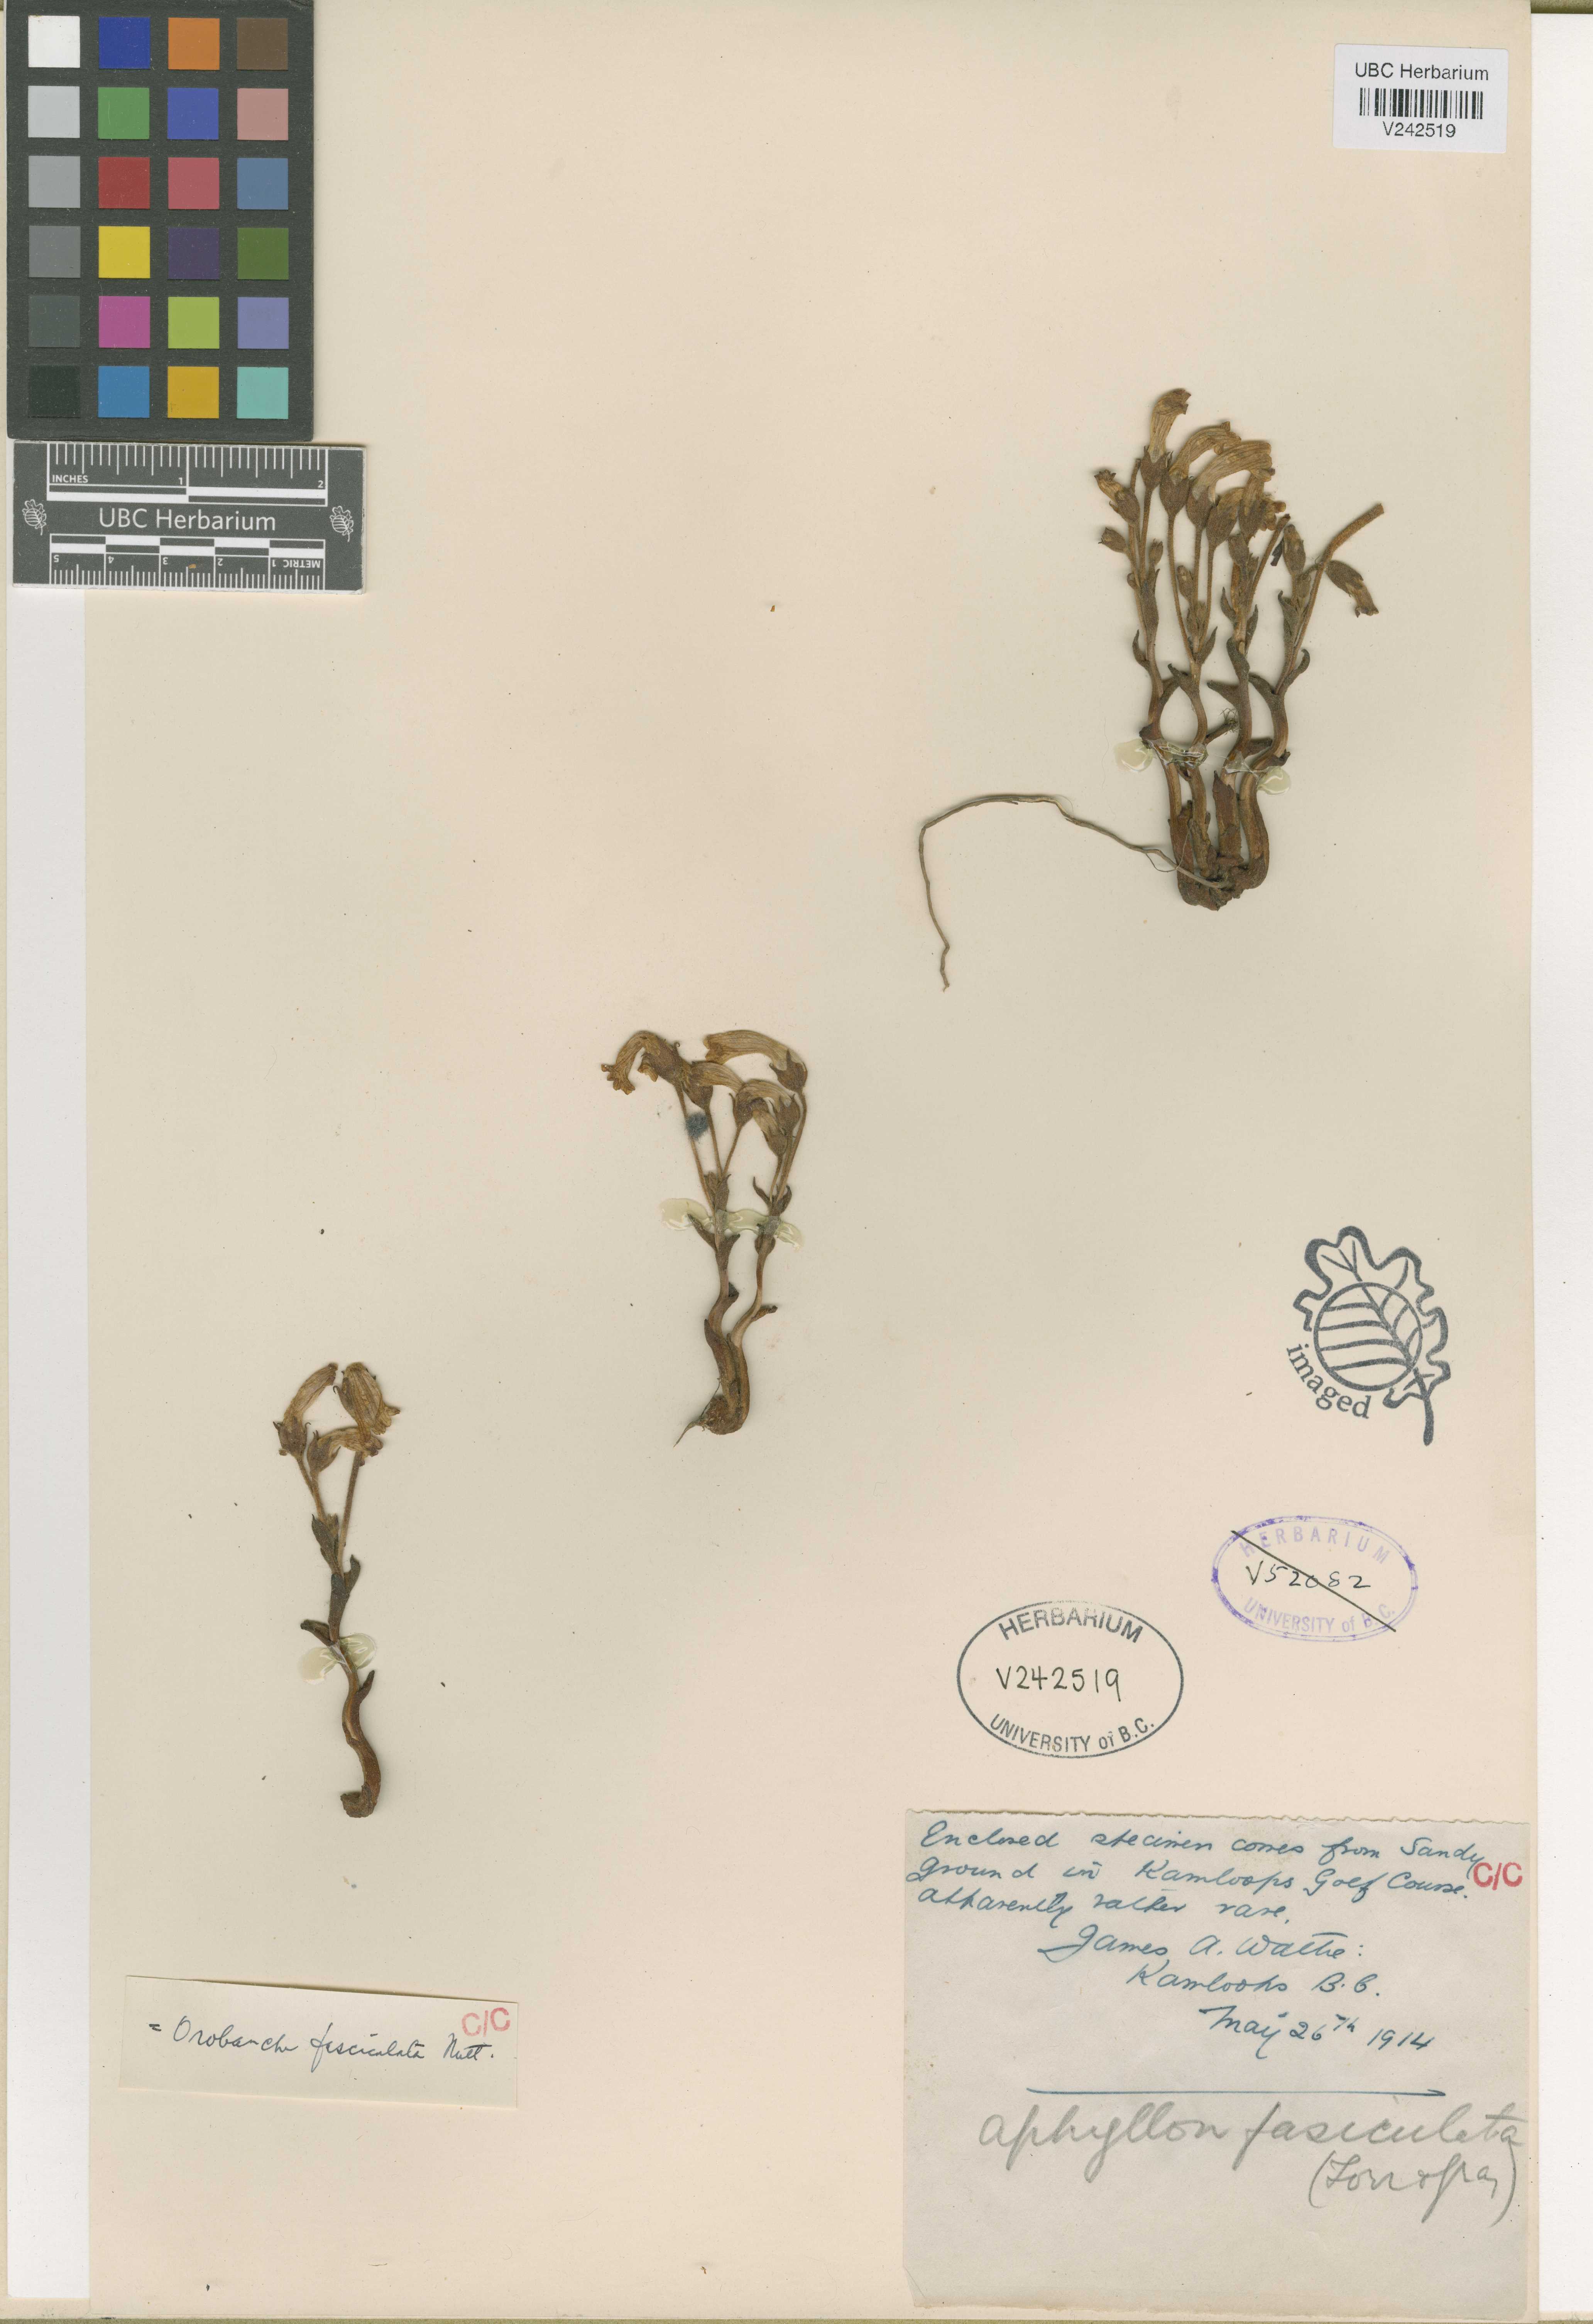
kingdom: Plantae
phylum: Tracheophyta
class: Magnoliopsida
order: Lamiales
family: Orobanchaceae
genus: Aphyllon
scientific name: Aphyllon fasciculatum
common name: Clustered broomrape
